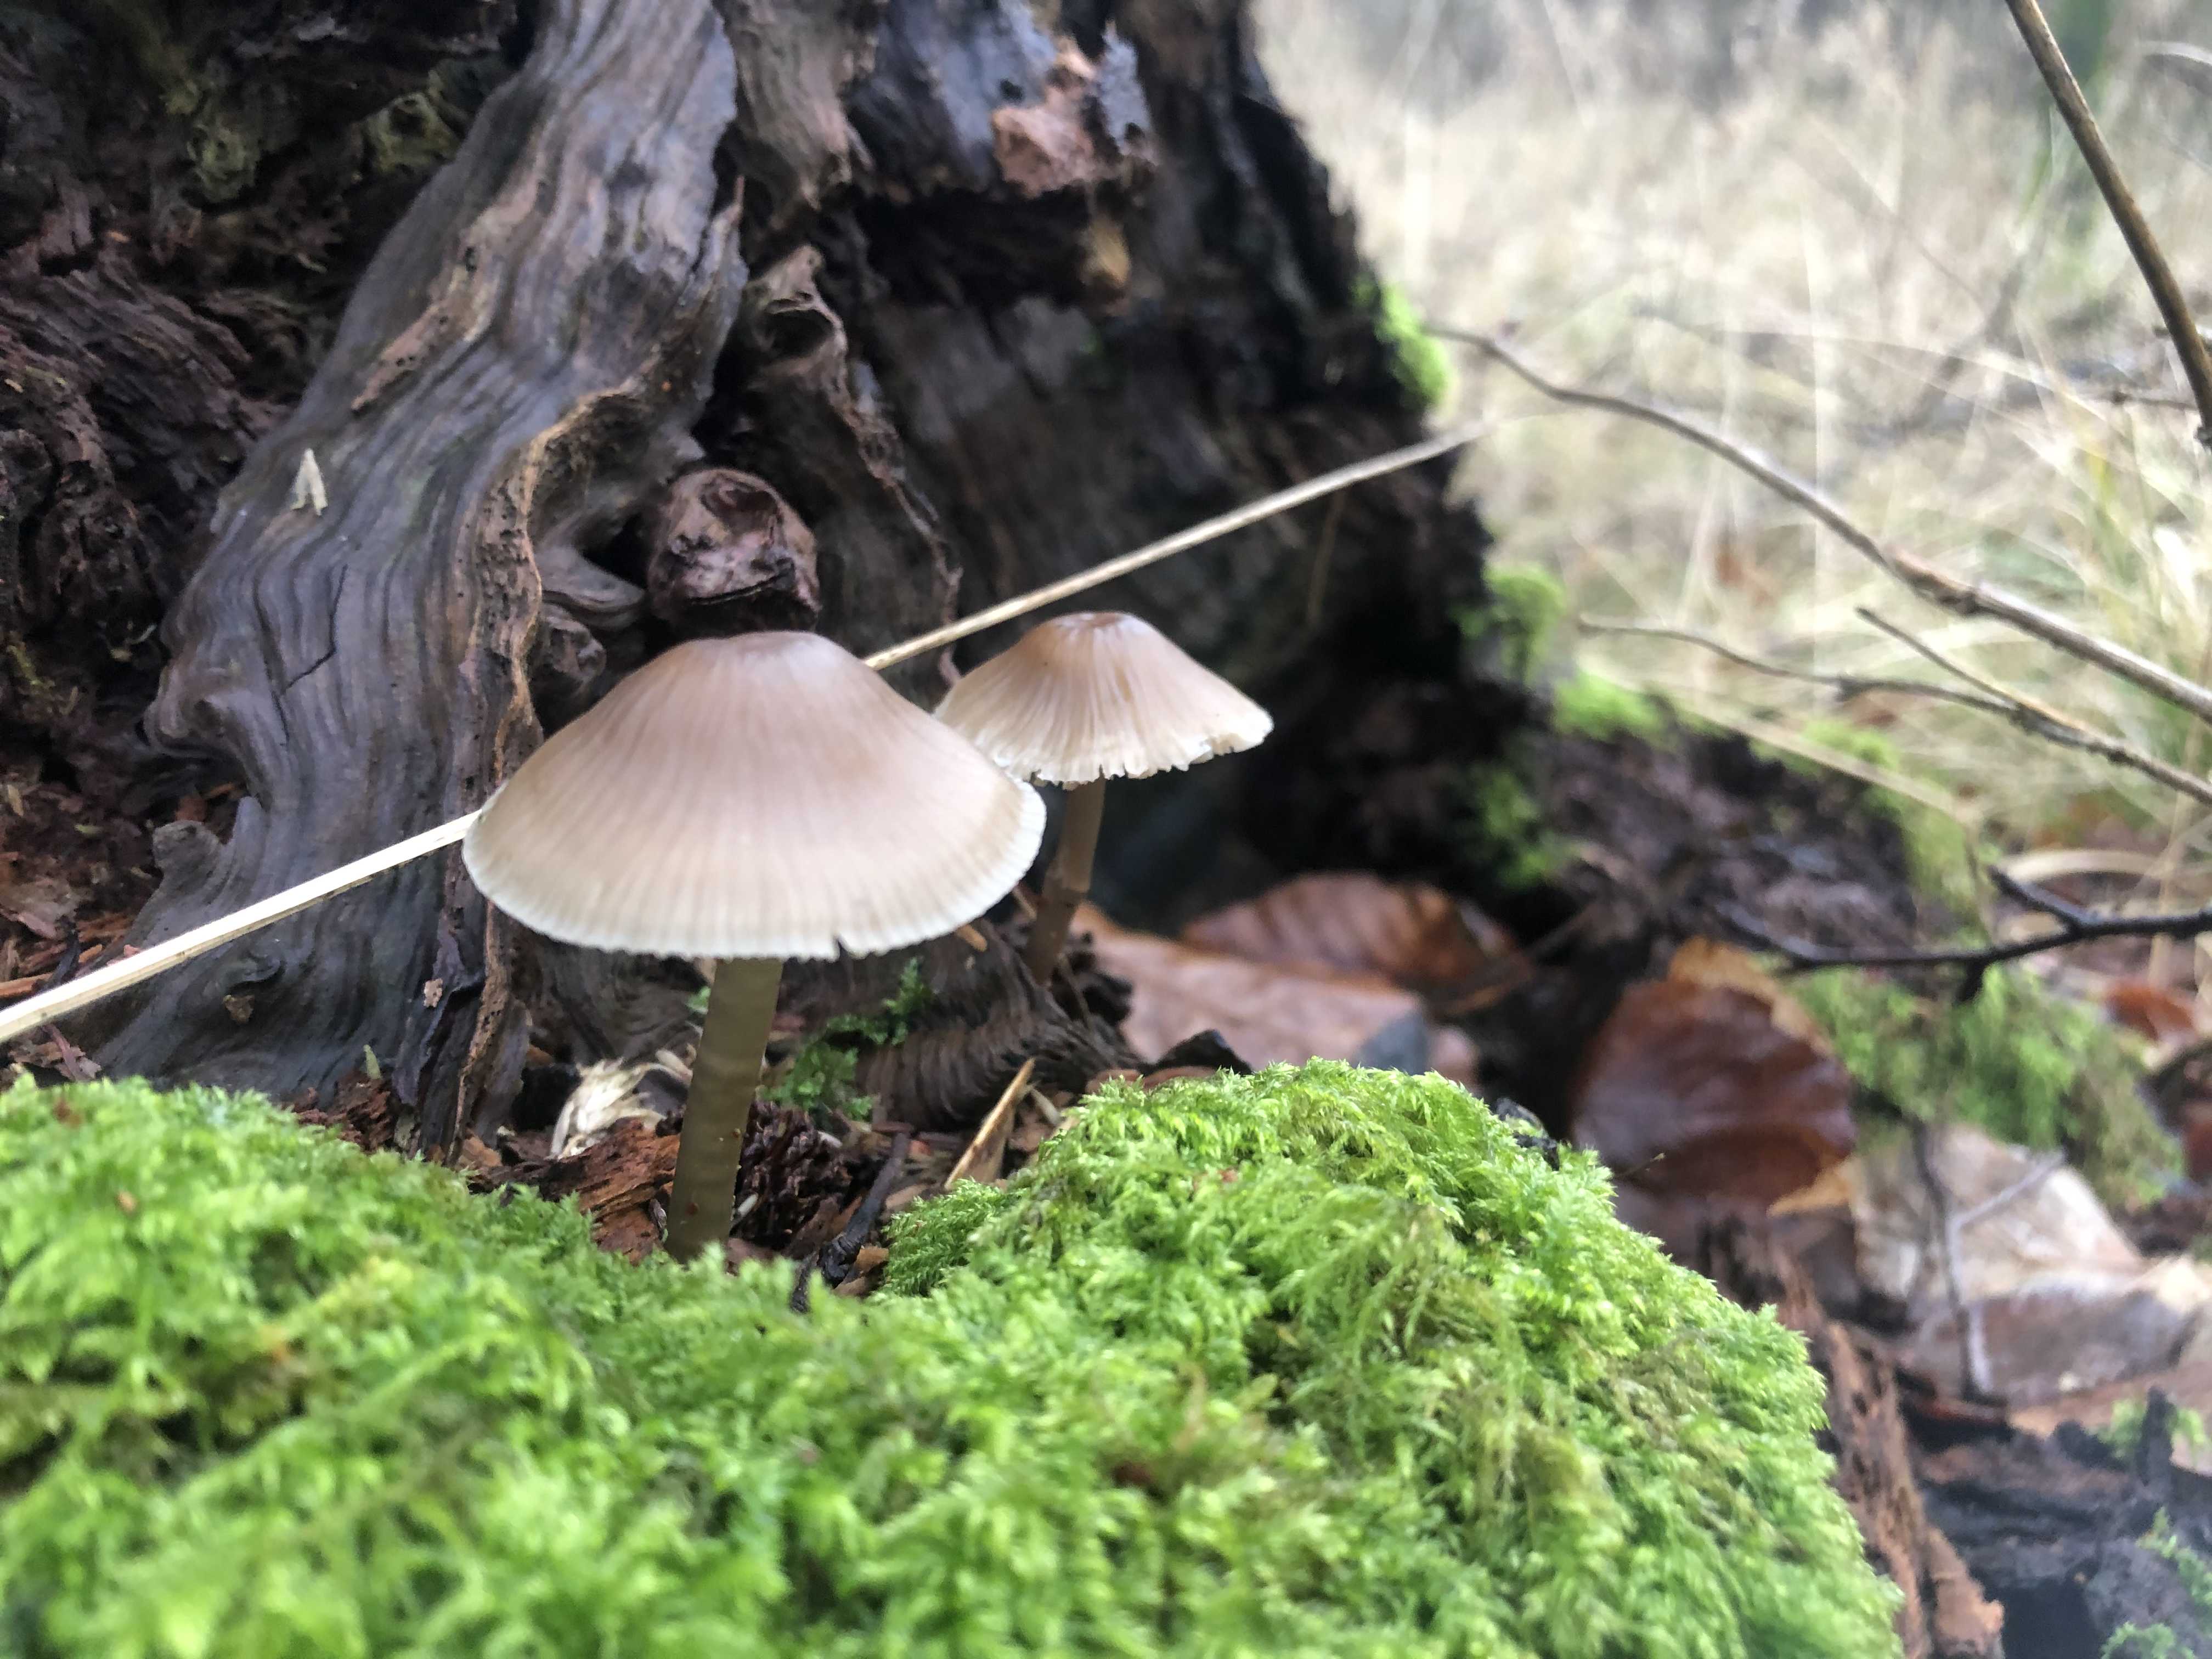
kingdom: Fungi
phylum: Basidiomycota
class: Agaricomycetes
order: Agaricales
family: Mycenaceae
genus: Mycena
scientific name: Mycena galericulata
